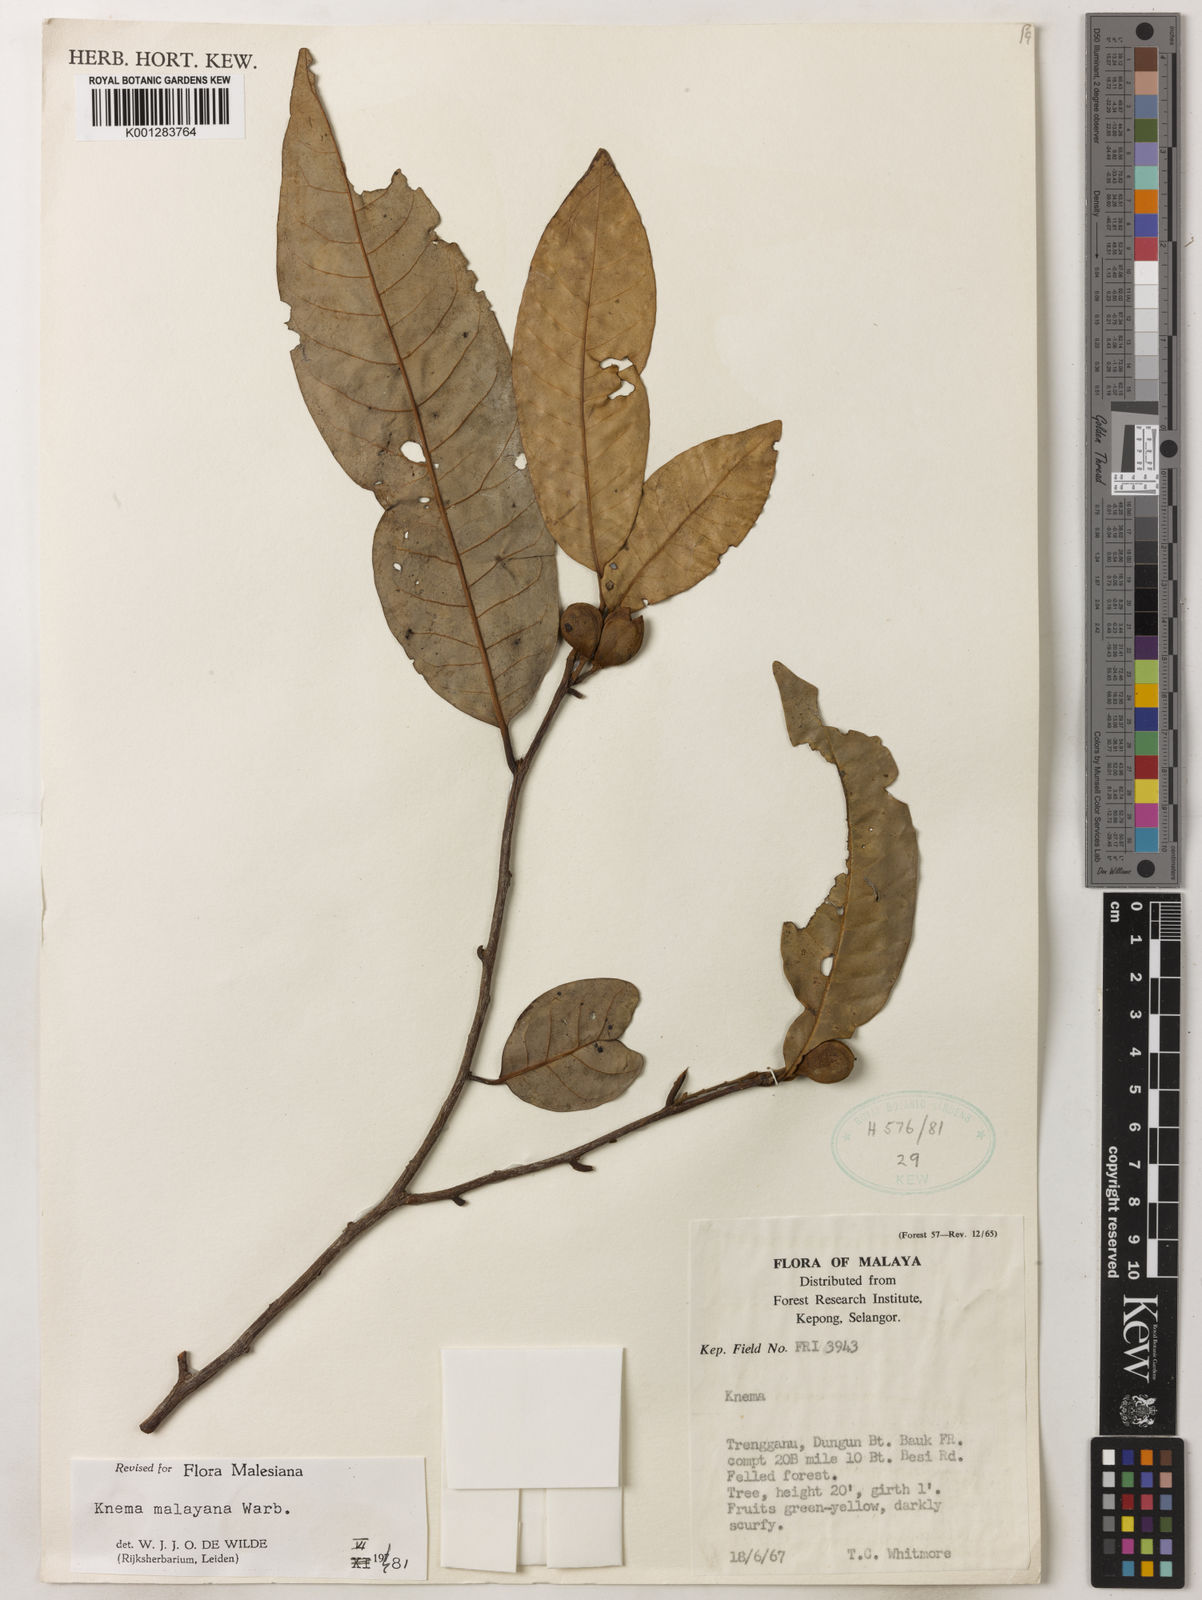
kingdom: Plantae
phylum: Tracheophyta
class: Magnoliopsida
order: Magnoliales
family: Myristicaceae
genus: Knema
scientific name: Knema malayana
